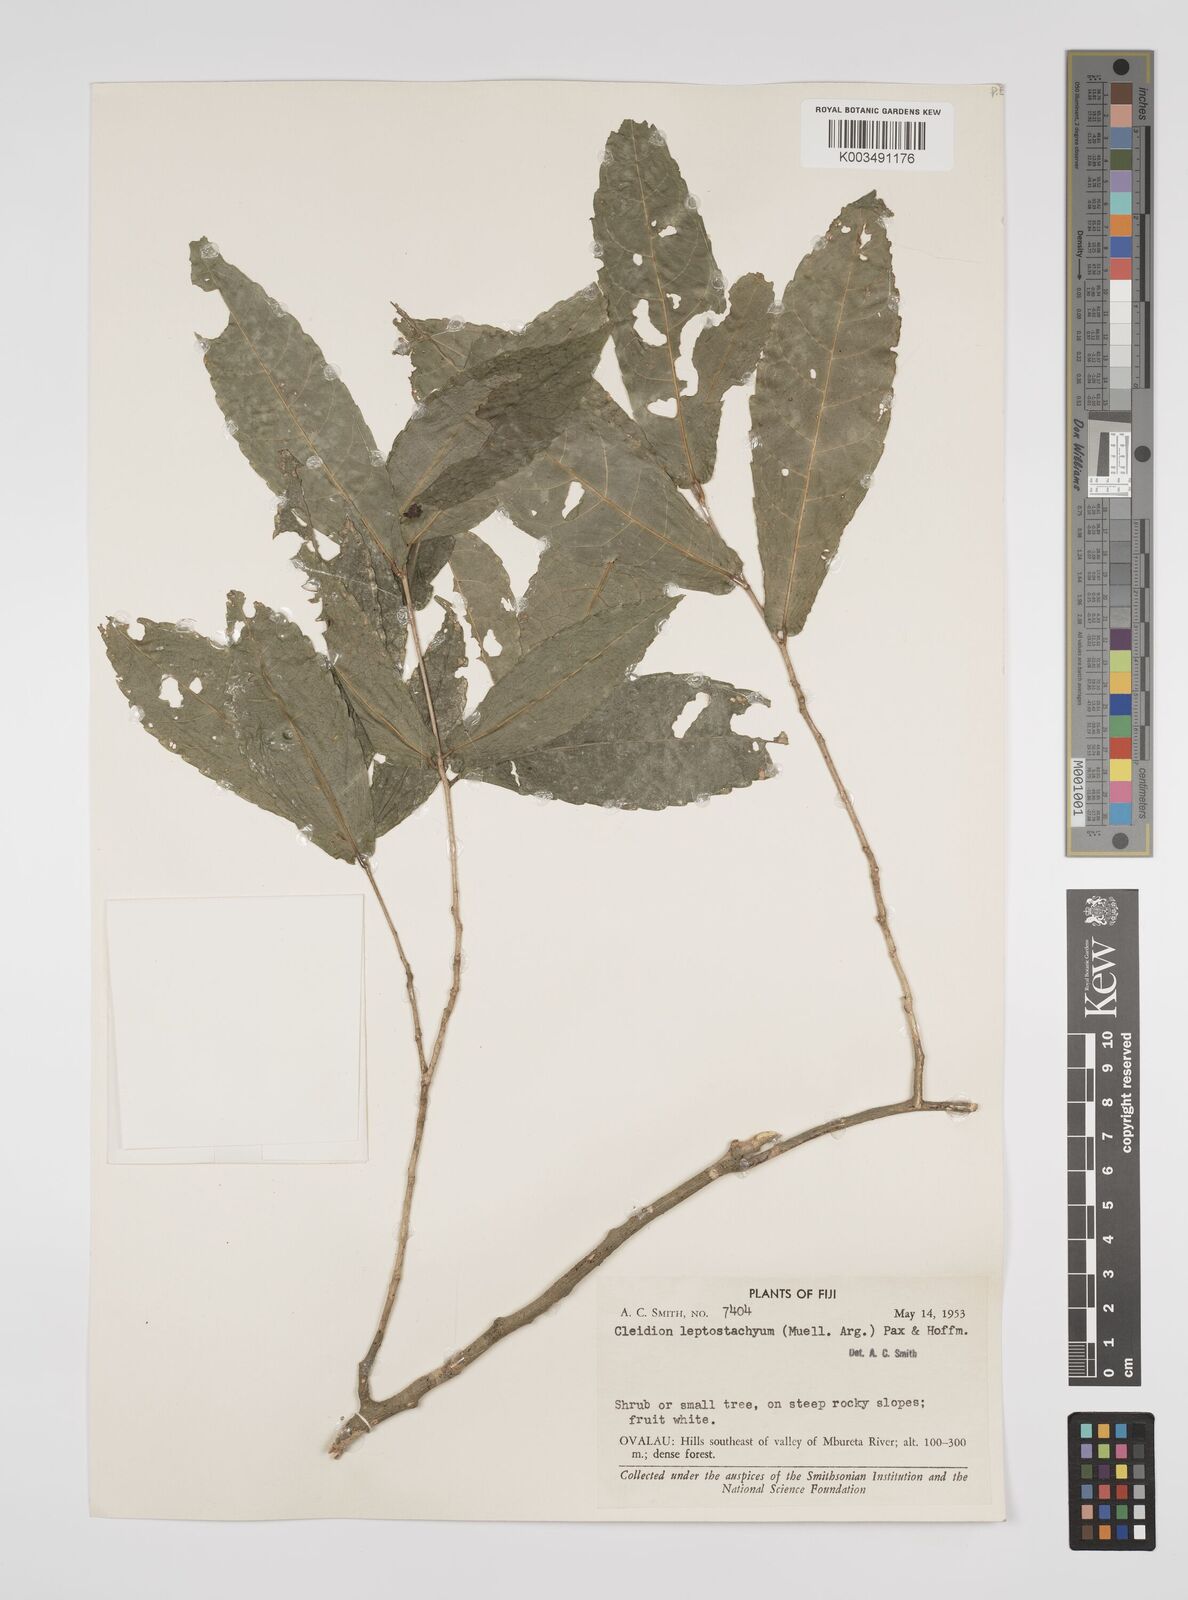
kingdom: Plantae
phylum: Tracheophyta
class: Magnoliopsida
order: Malpighiales
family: Euphorbiaceae
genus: Cleidion
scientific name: Cleidion leptostachyum
